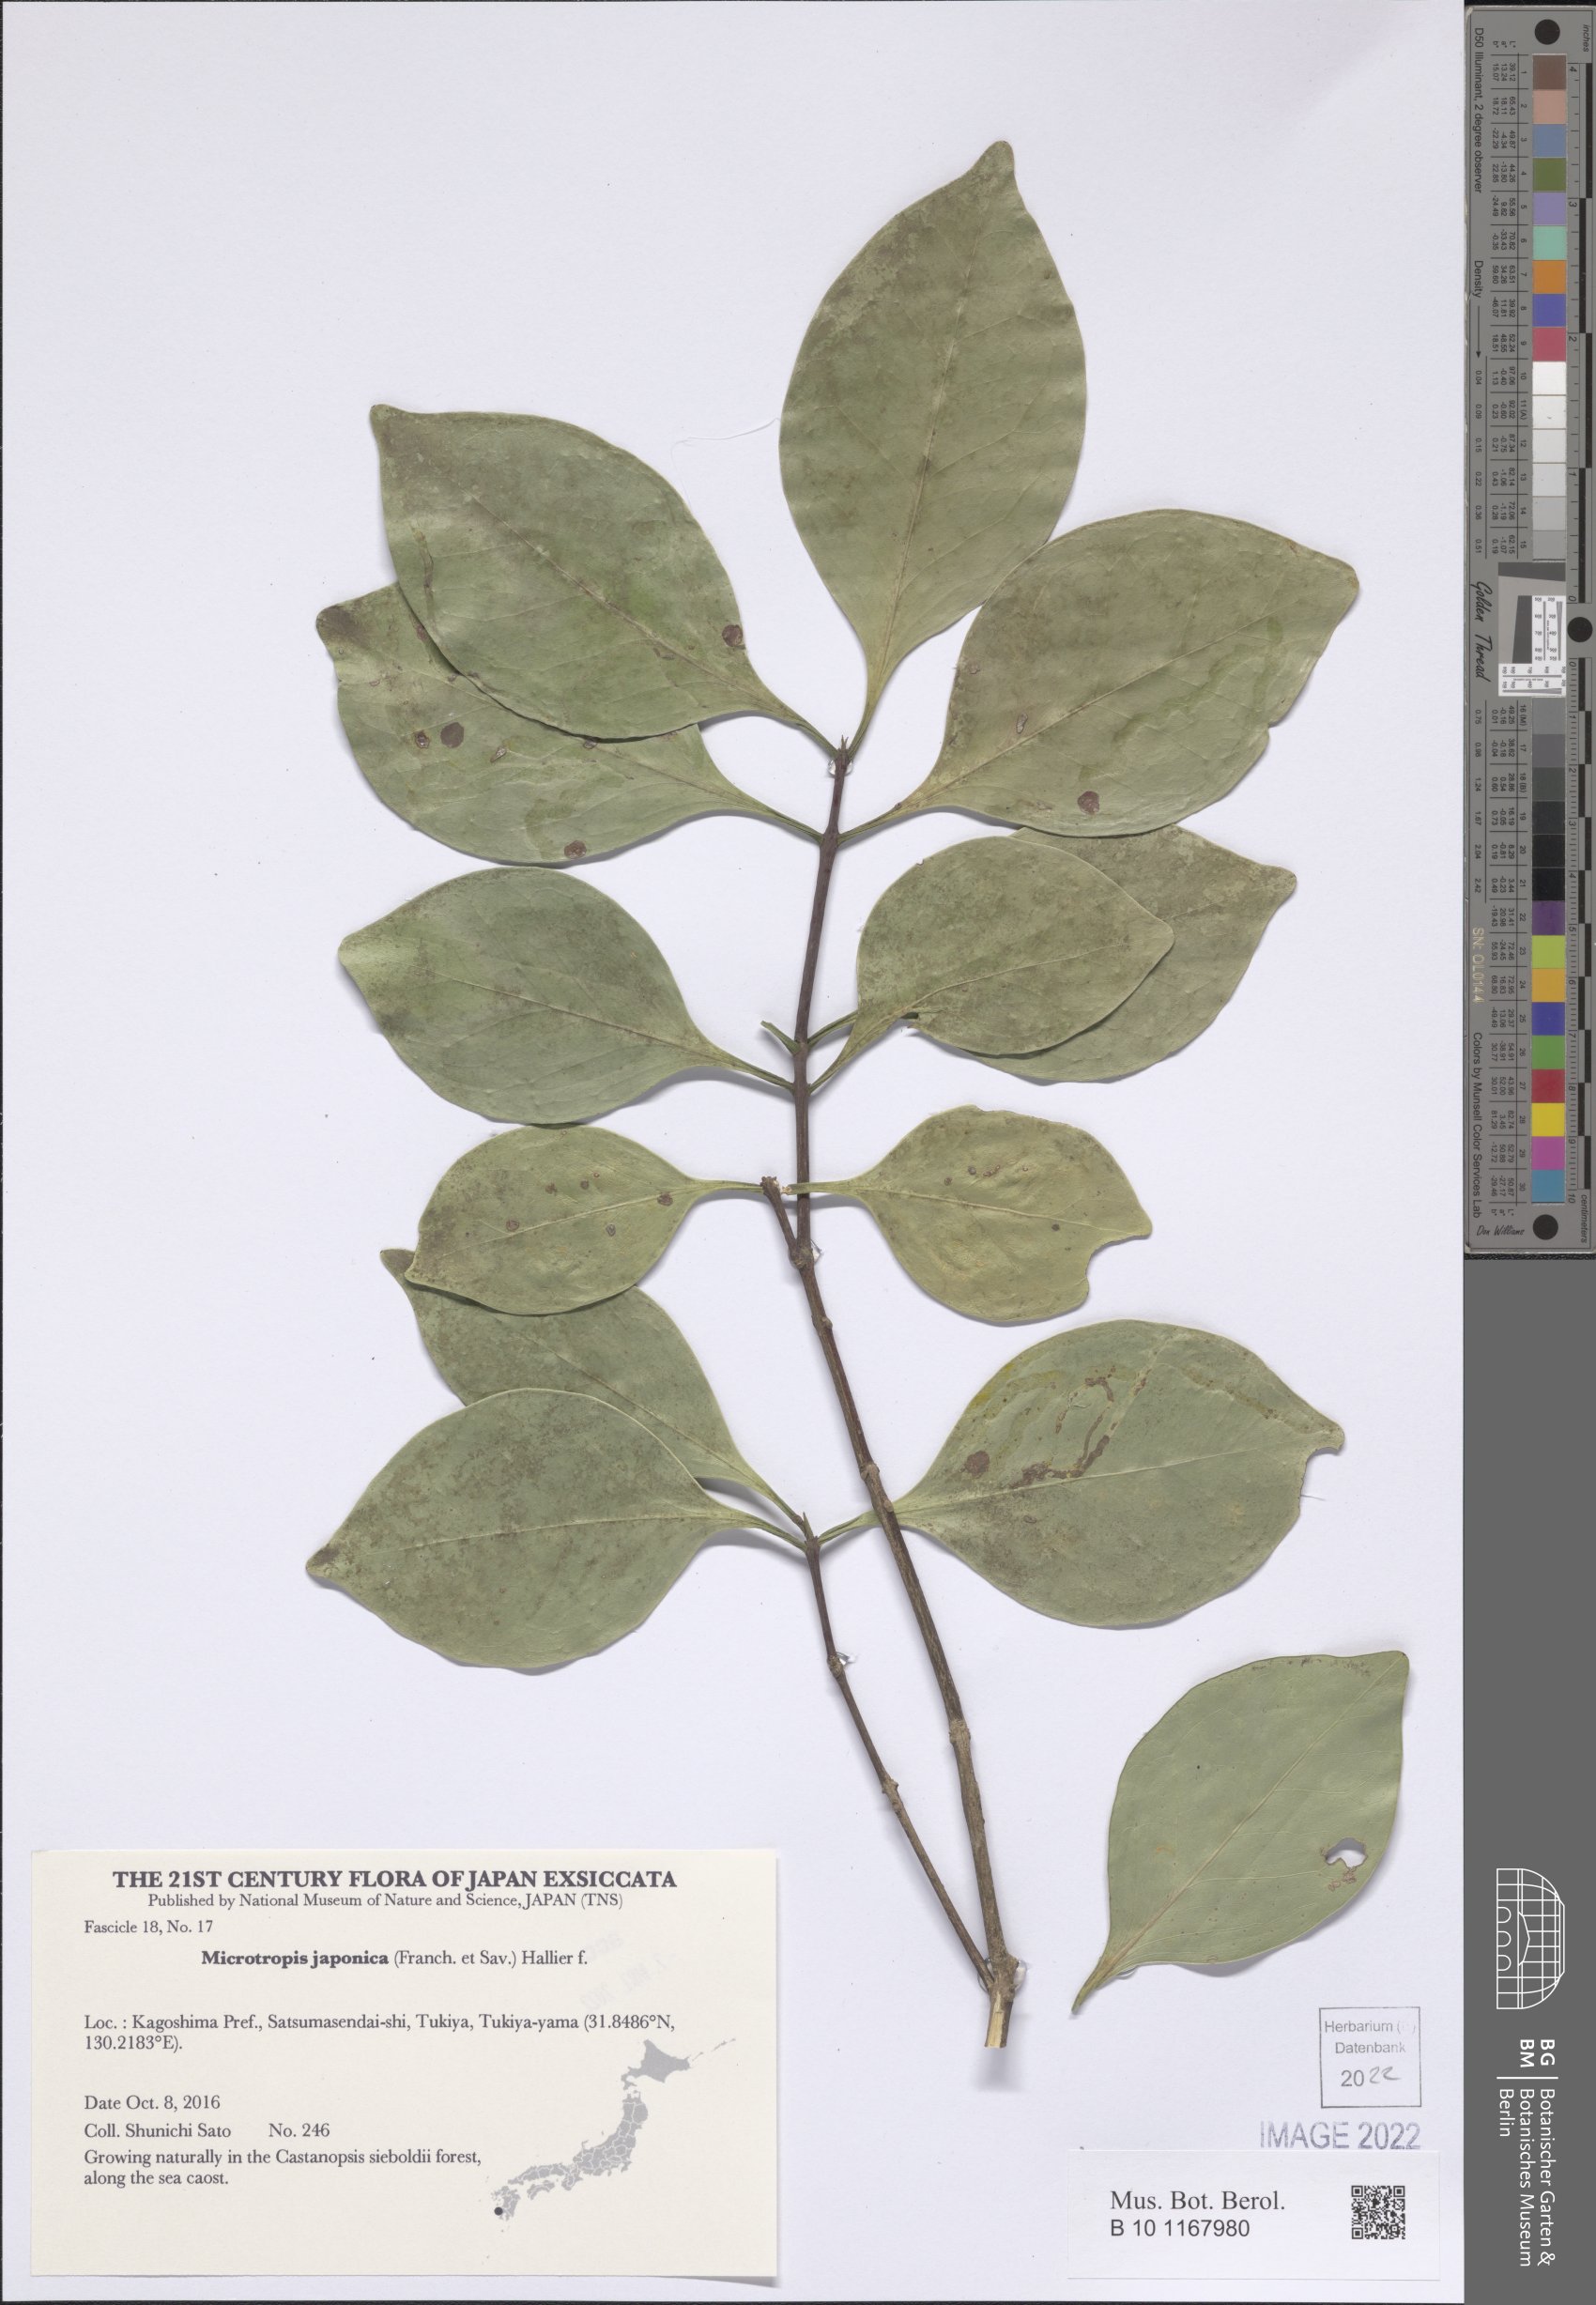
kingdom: Plantae
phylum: Tracheophyta
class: Magnoliopsida
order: Celastrales
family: Celastraceae
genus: Microtropis
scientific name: Microtropis japonica
